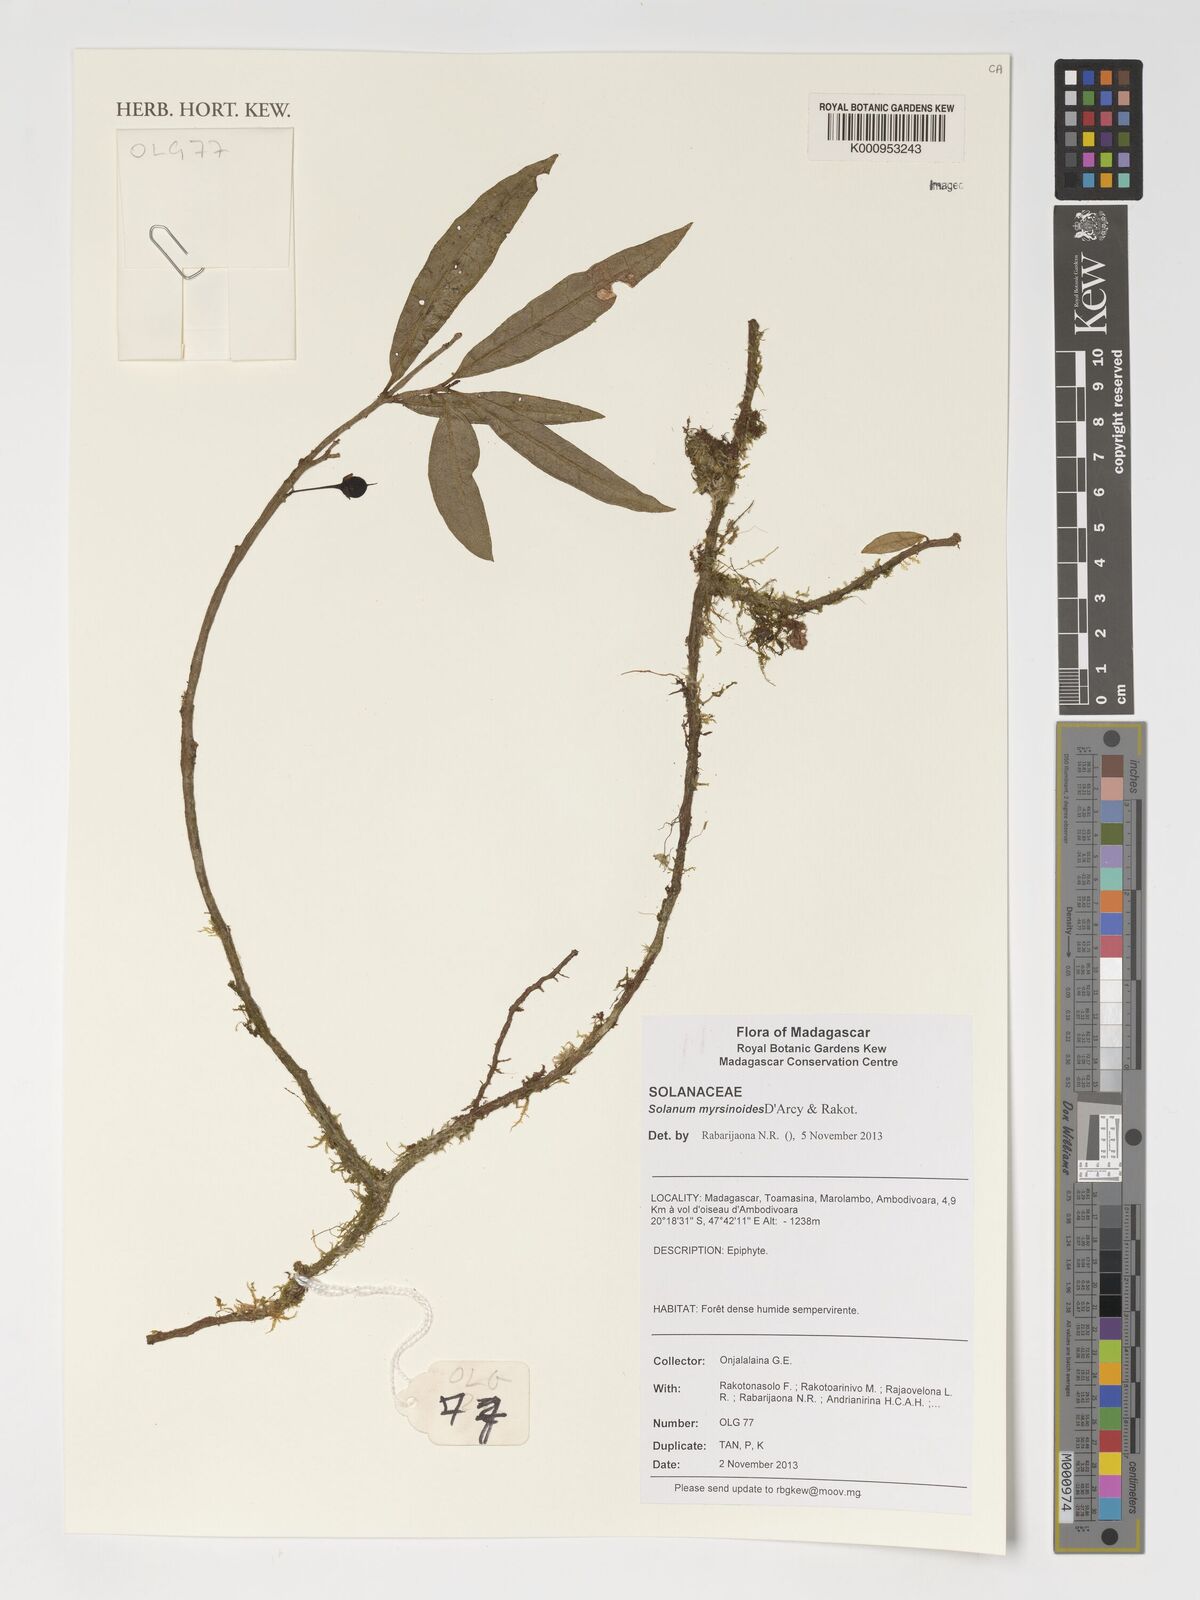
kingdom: Plantae
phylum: Tracheophyta
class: Magnoliopsida
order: Solanales
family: Solanaceae
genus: Solanum
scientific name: Solanum myrsinoides
